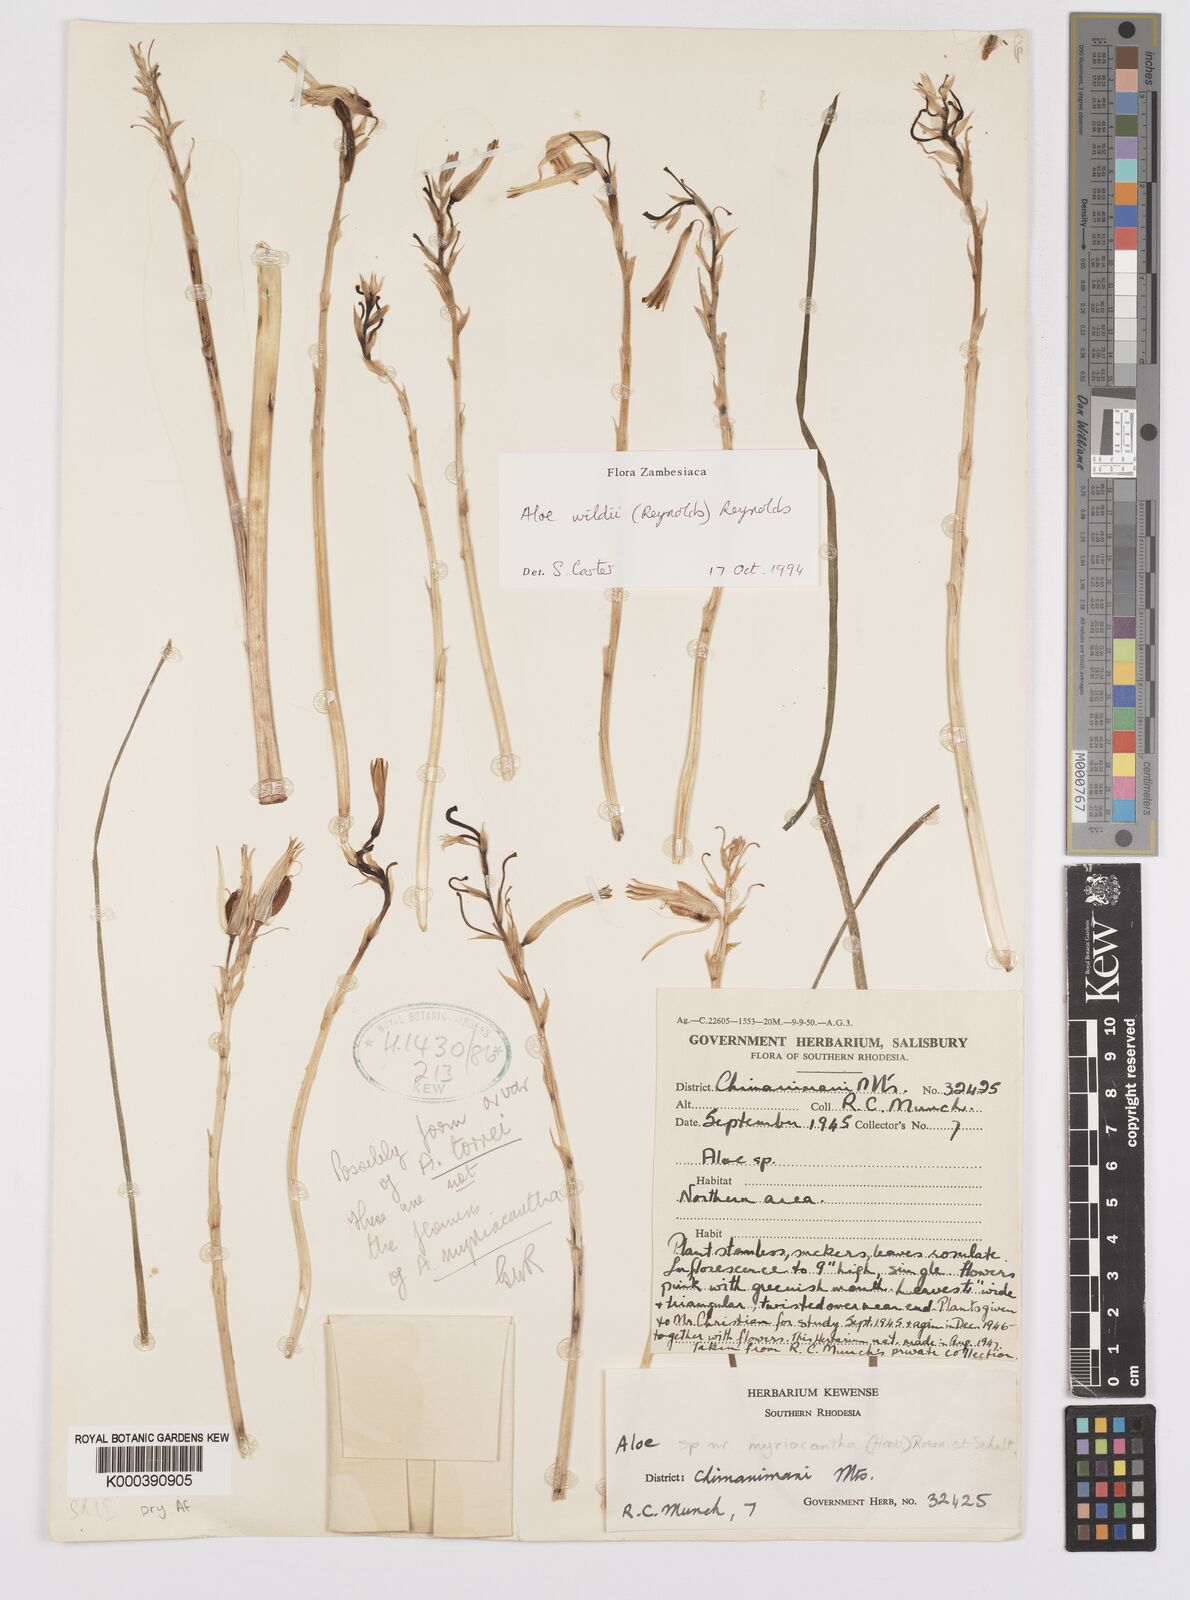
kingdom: Plantae
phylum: Tracheophyta
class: Liliopsida
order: Asparagales
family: Asphodelaceae
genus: Aloe
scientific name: Aloe wildii
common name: Wild's small chimanimani aloe
